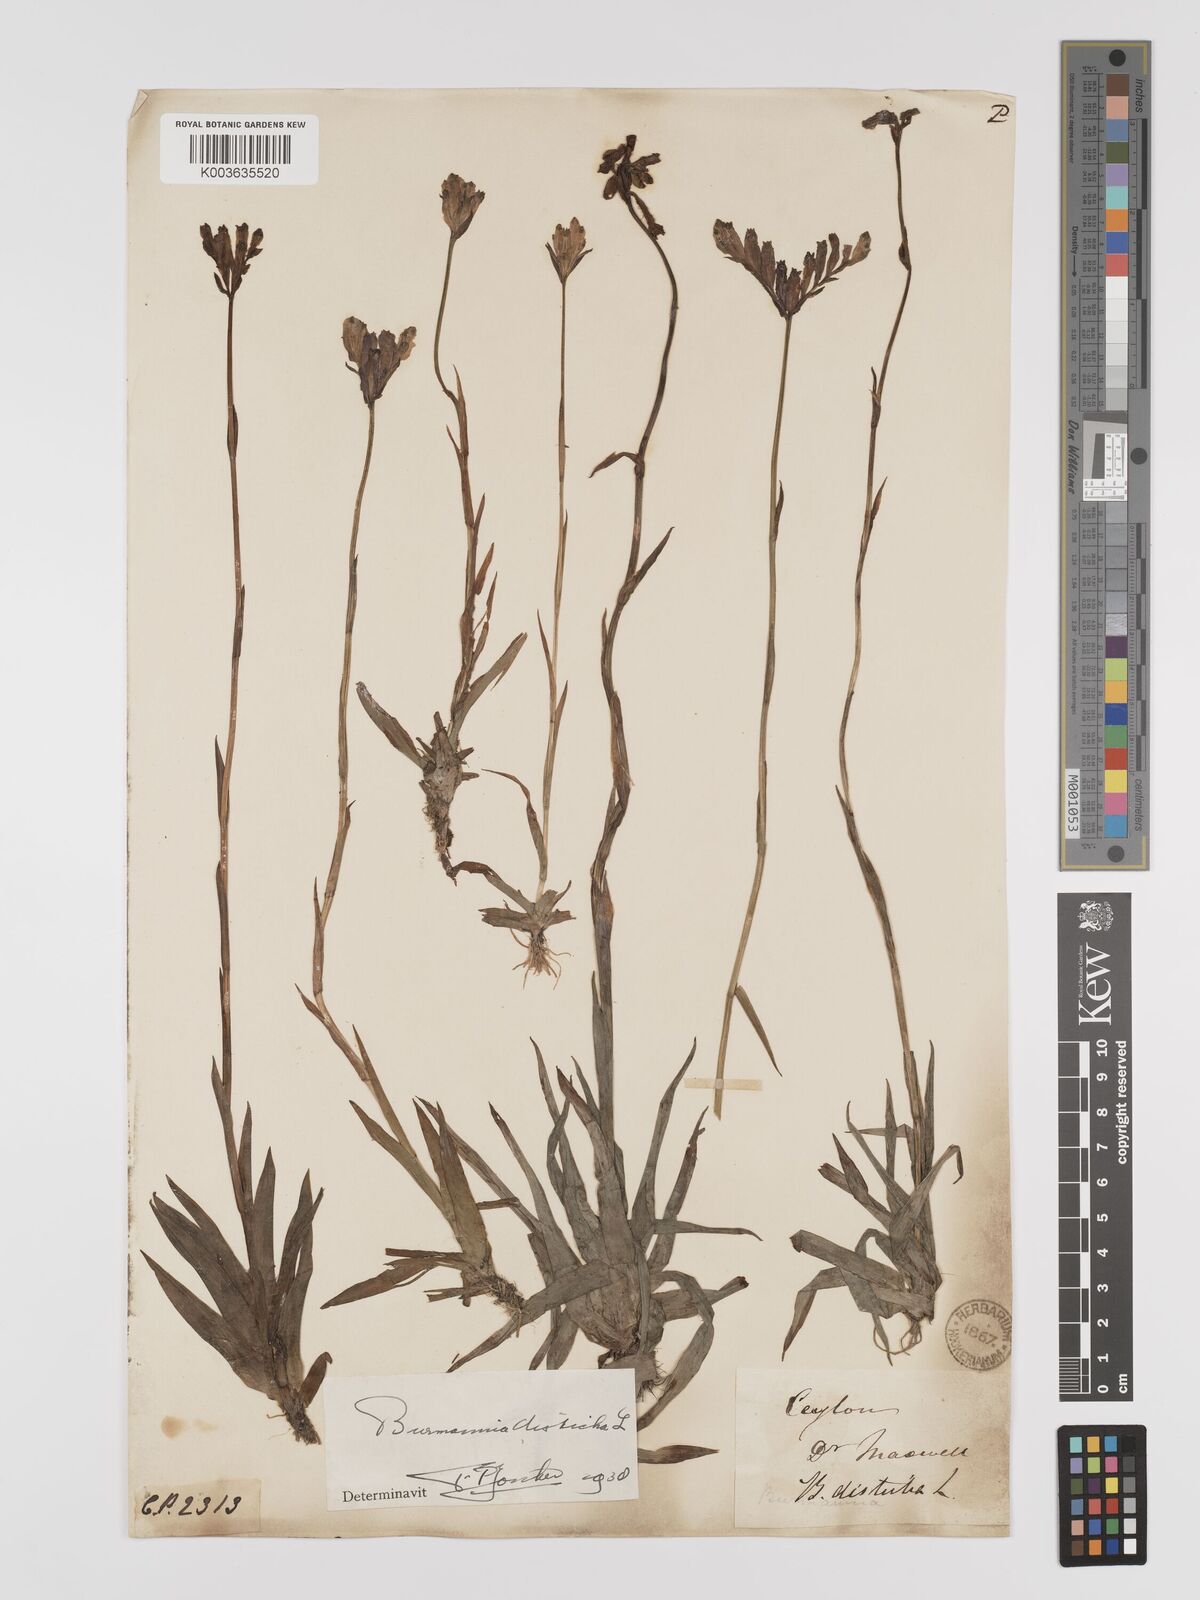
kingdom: Plantae
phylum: Tracheophyta
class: Liliopsida
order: Dioscoreales
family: Burmanniaceae
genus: Burmannia
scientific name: Burmannia disticha
